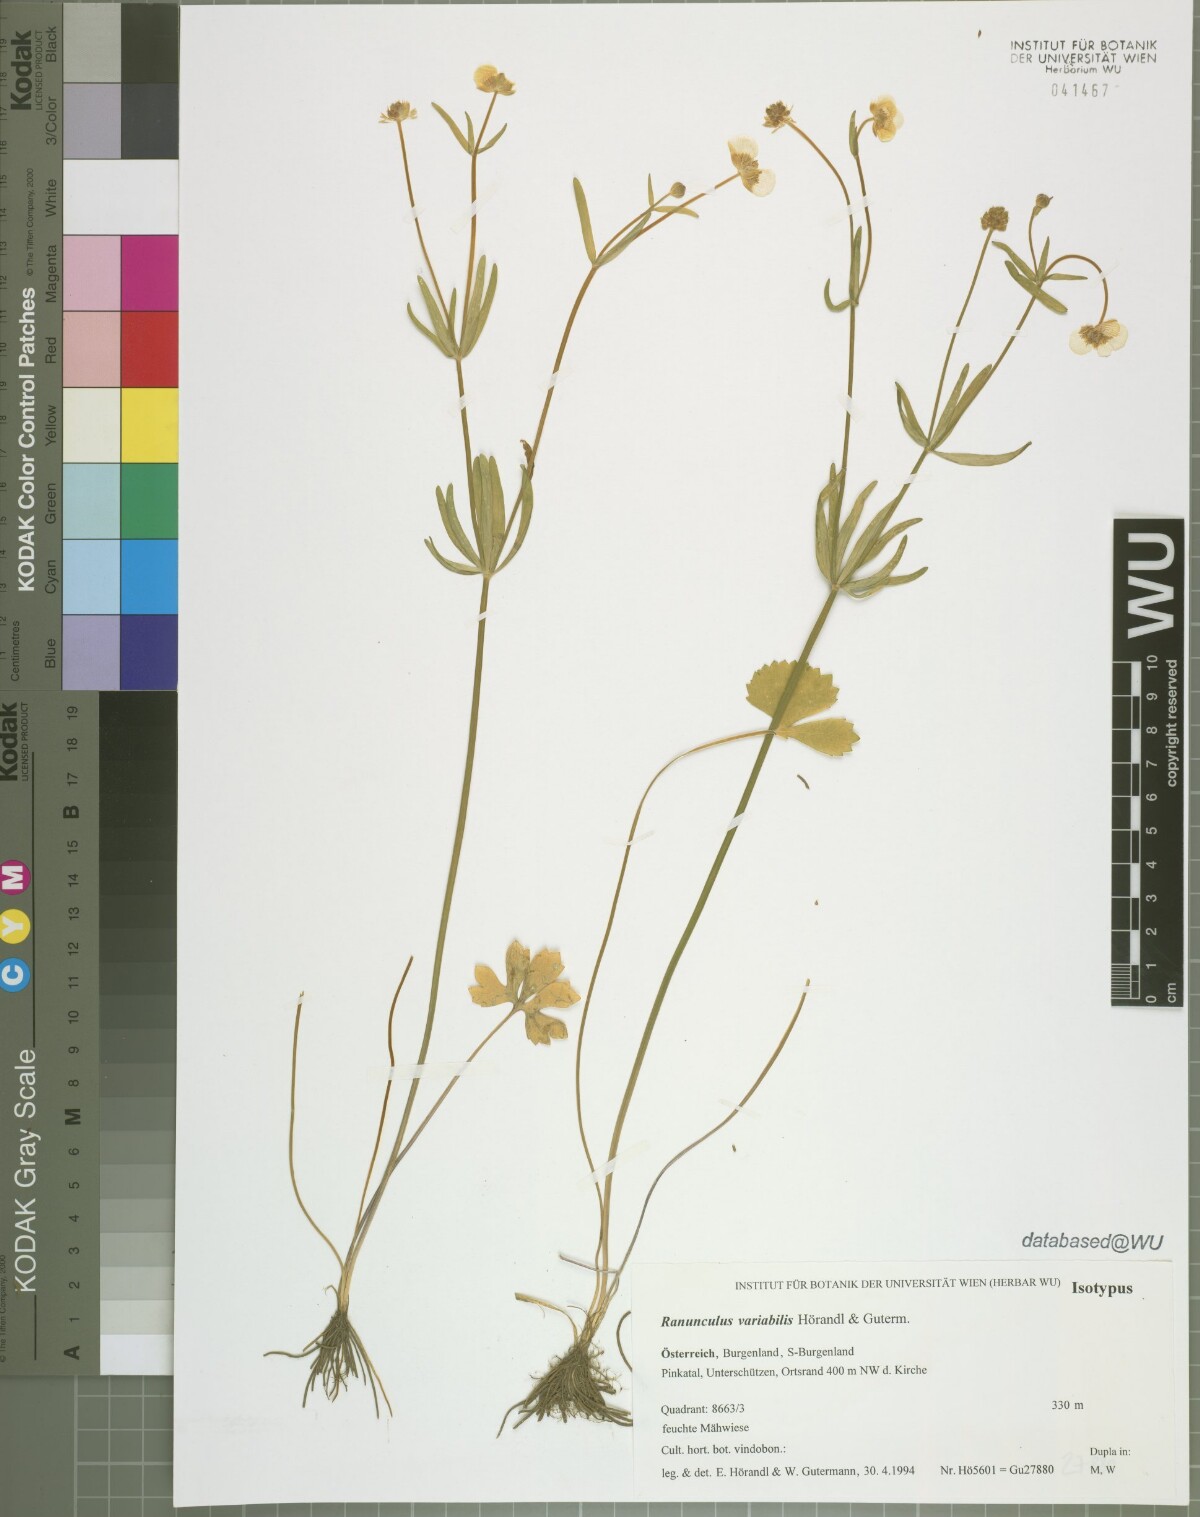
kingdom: Plantae
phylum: Tracheophyta
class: Magnoliopsida
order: Ranunculales
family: Ranunculaceae
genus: Ranunculus
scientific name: Ranunculus variabilis
